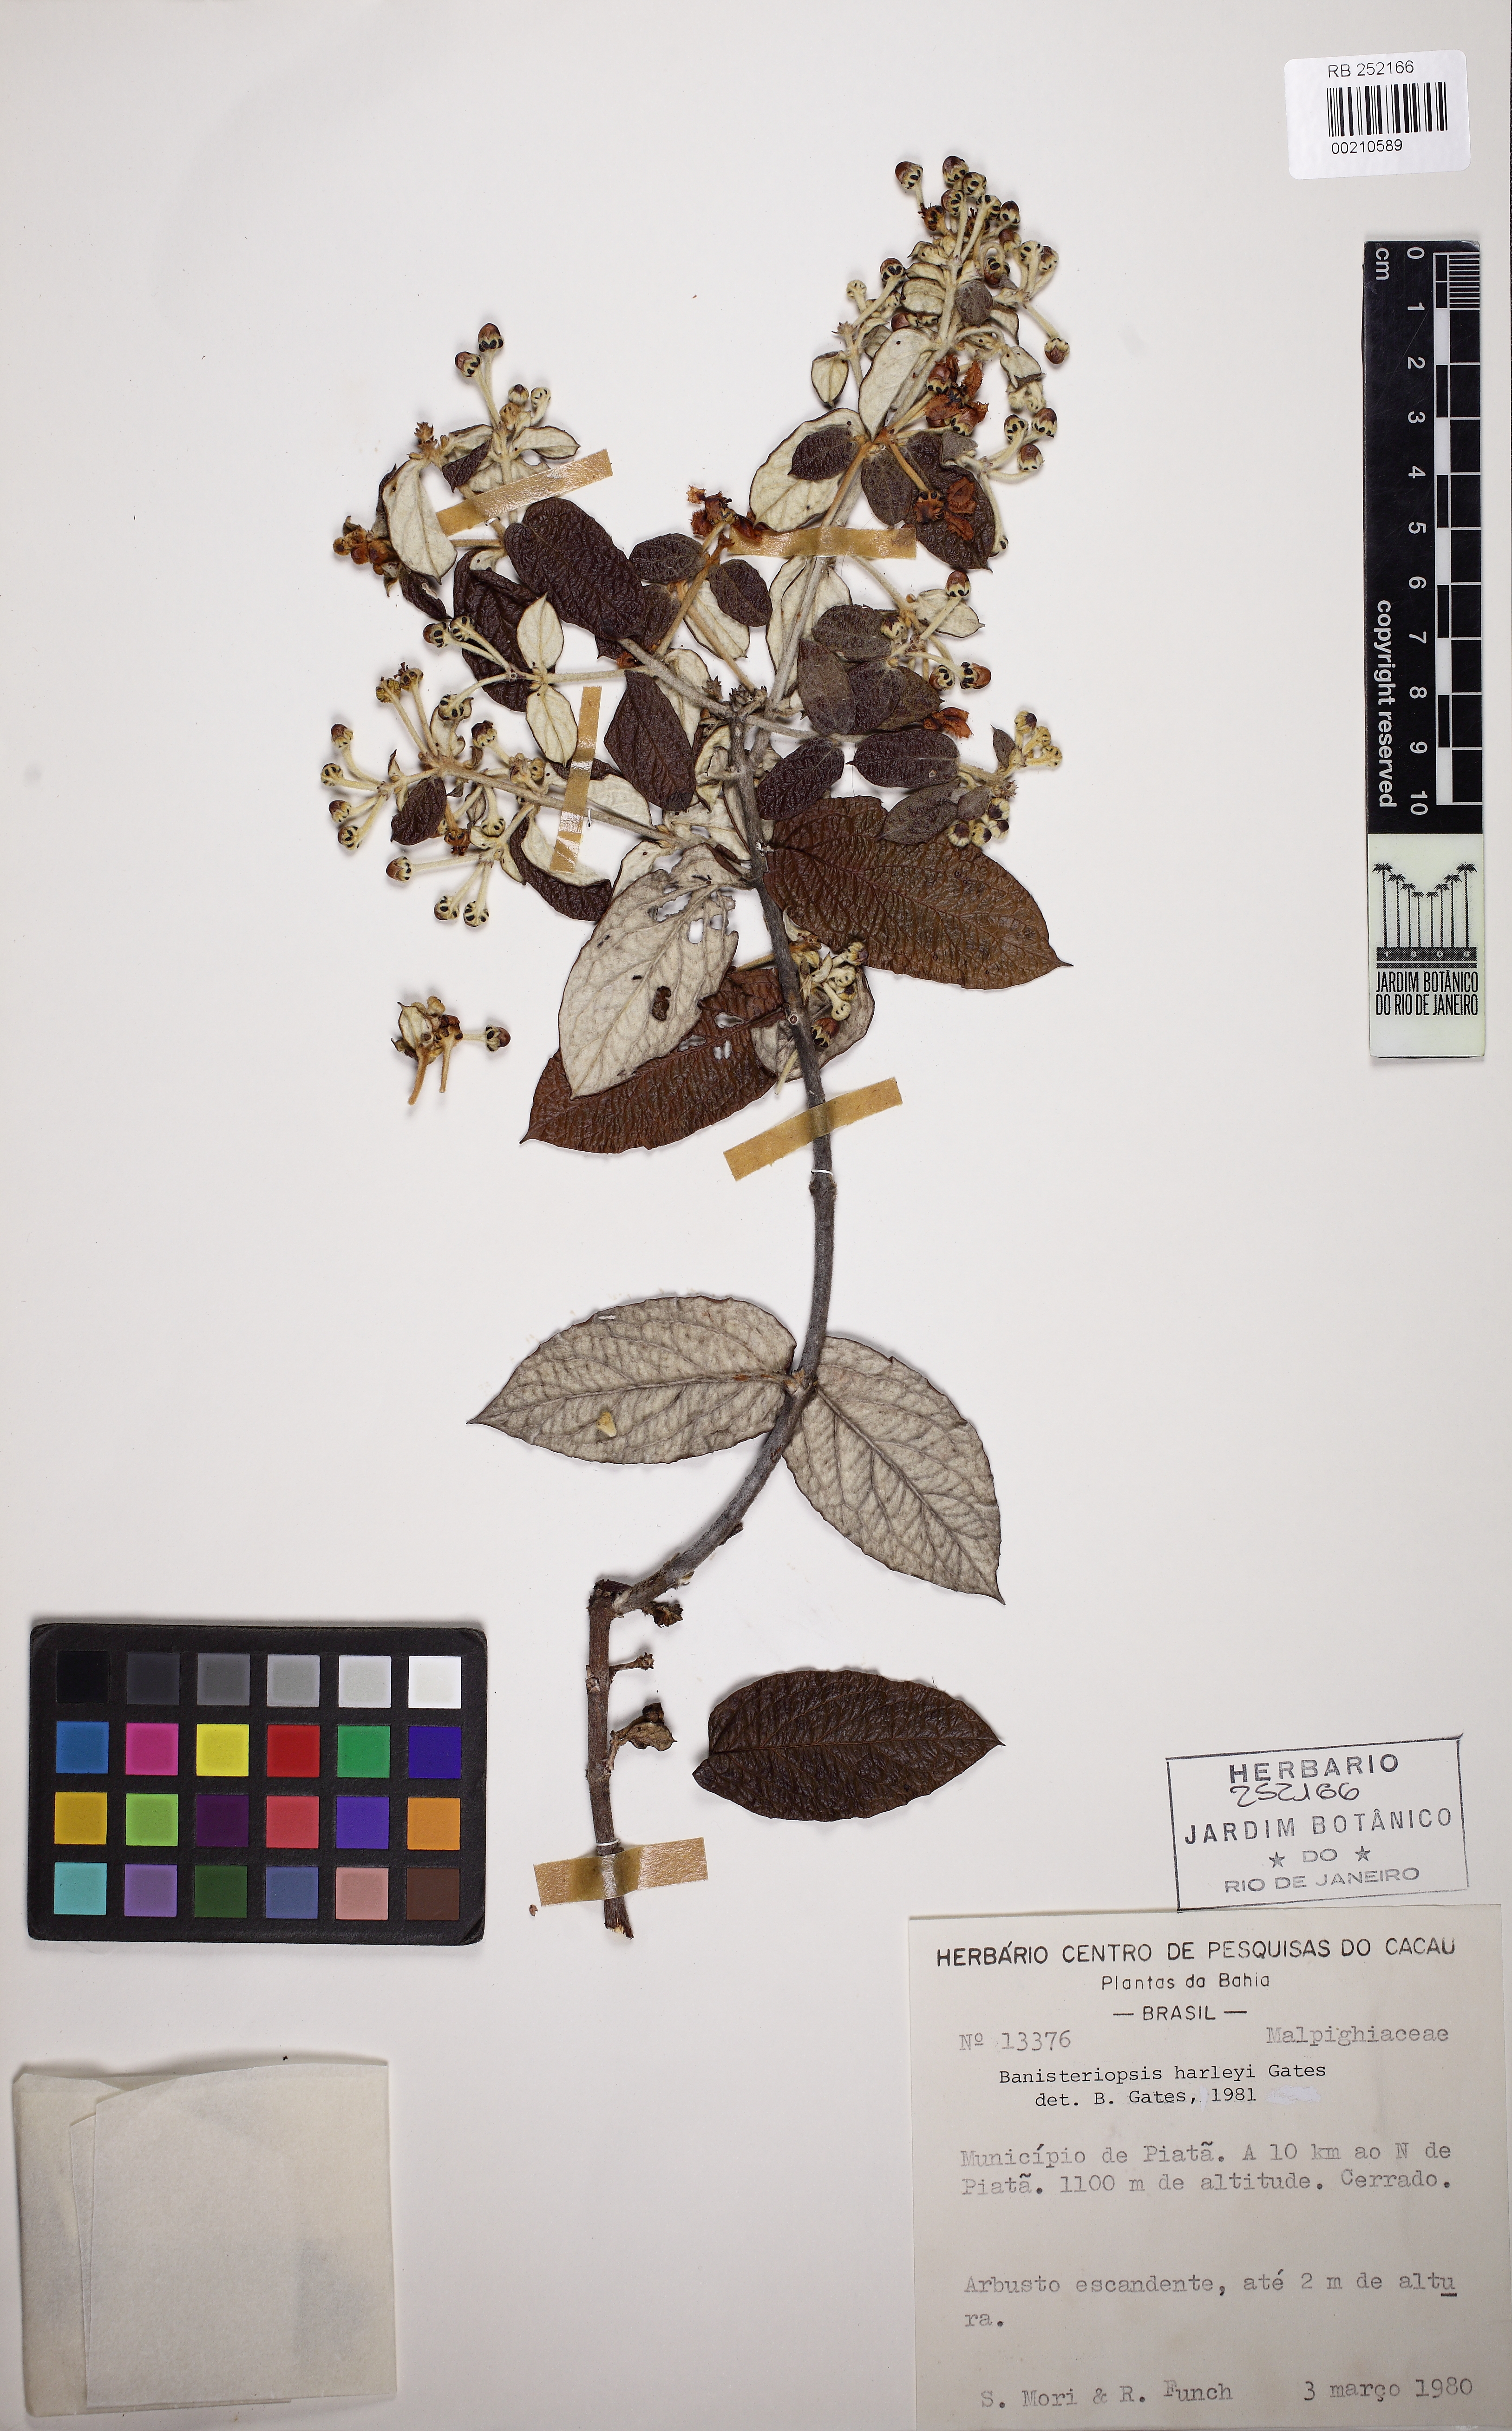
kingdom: Plantae
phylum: Tracheophyta
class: Magnoliopsida
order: Malpighiales
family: Malpighiaceae
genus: Banisteriopsis
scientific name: Banisteriopsis harleyi
